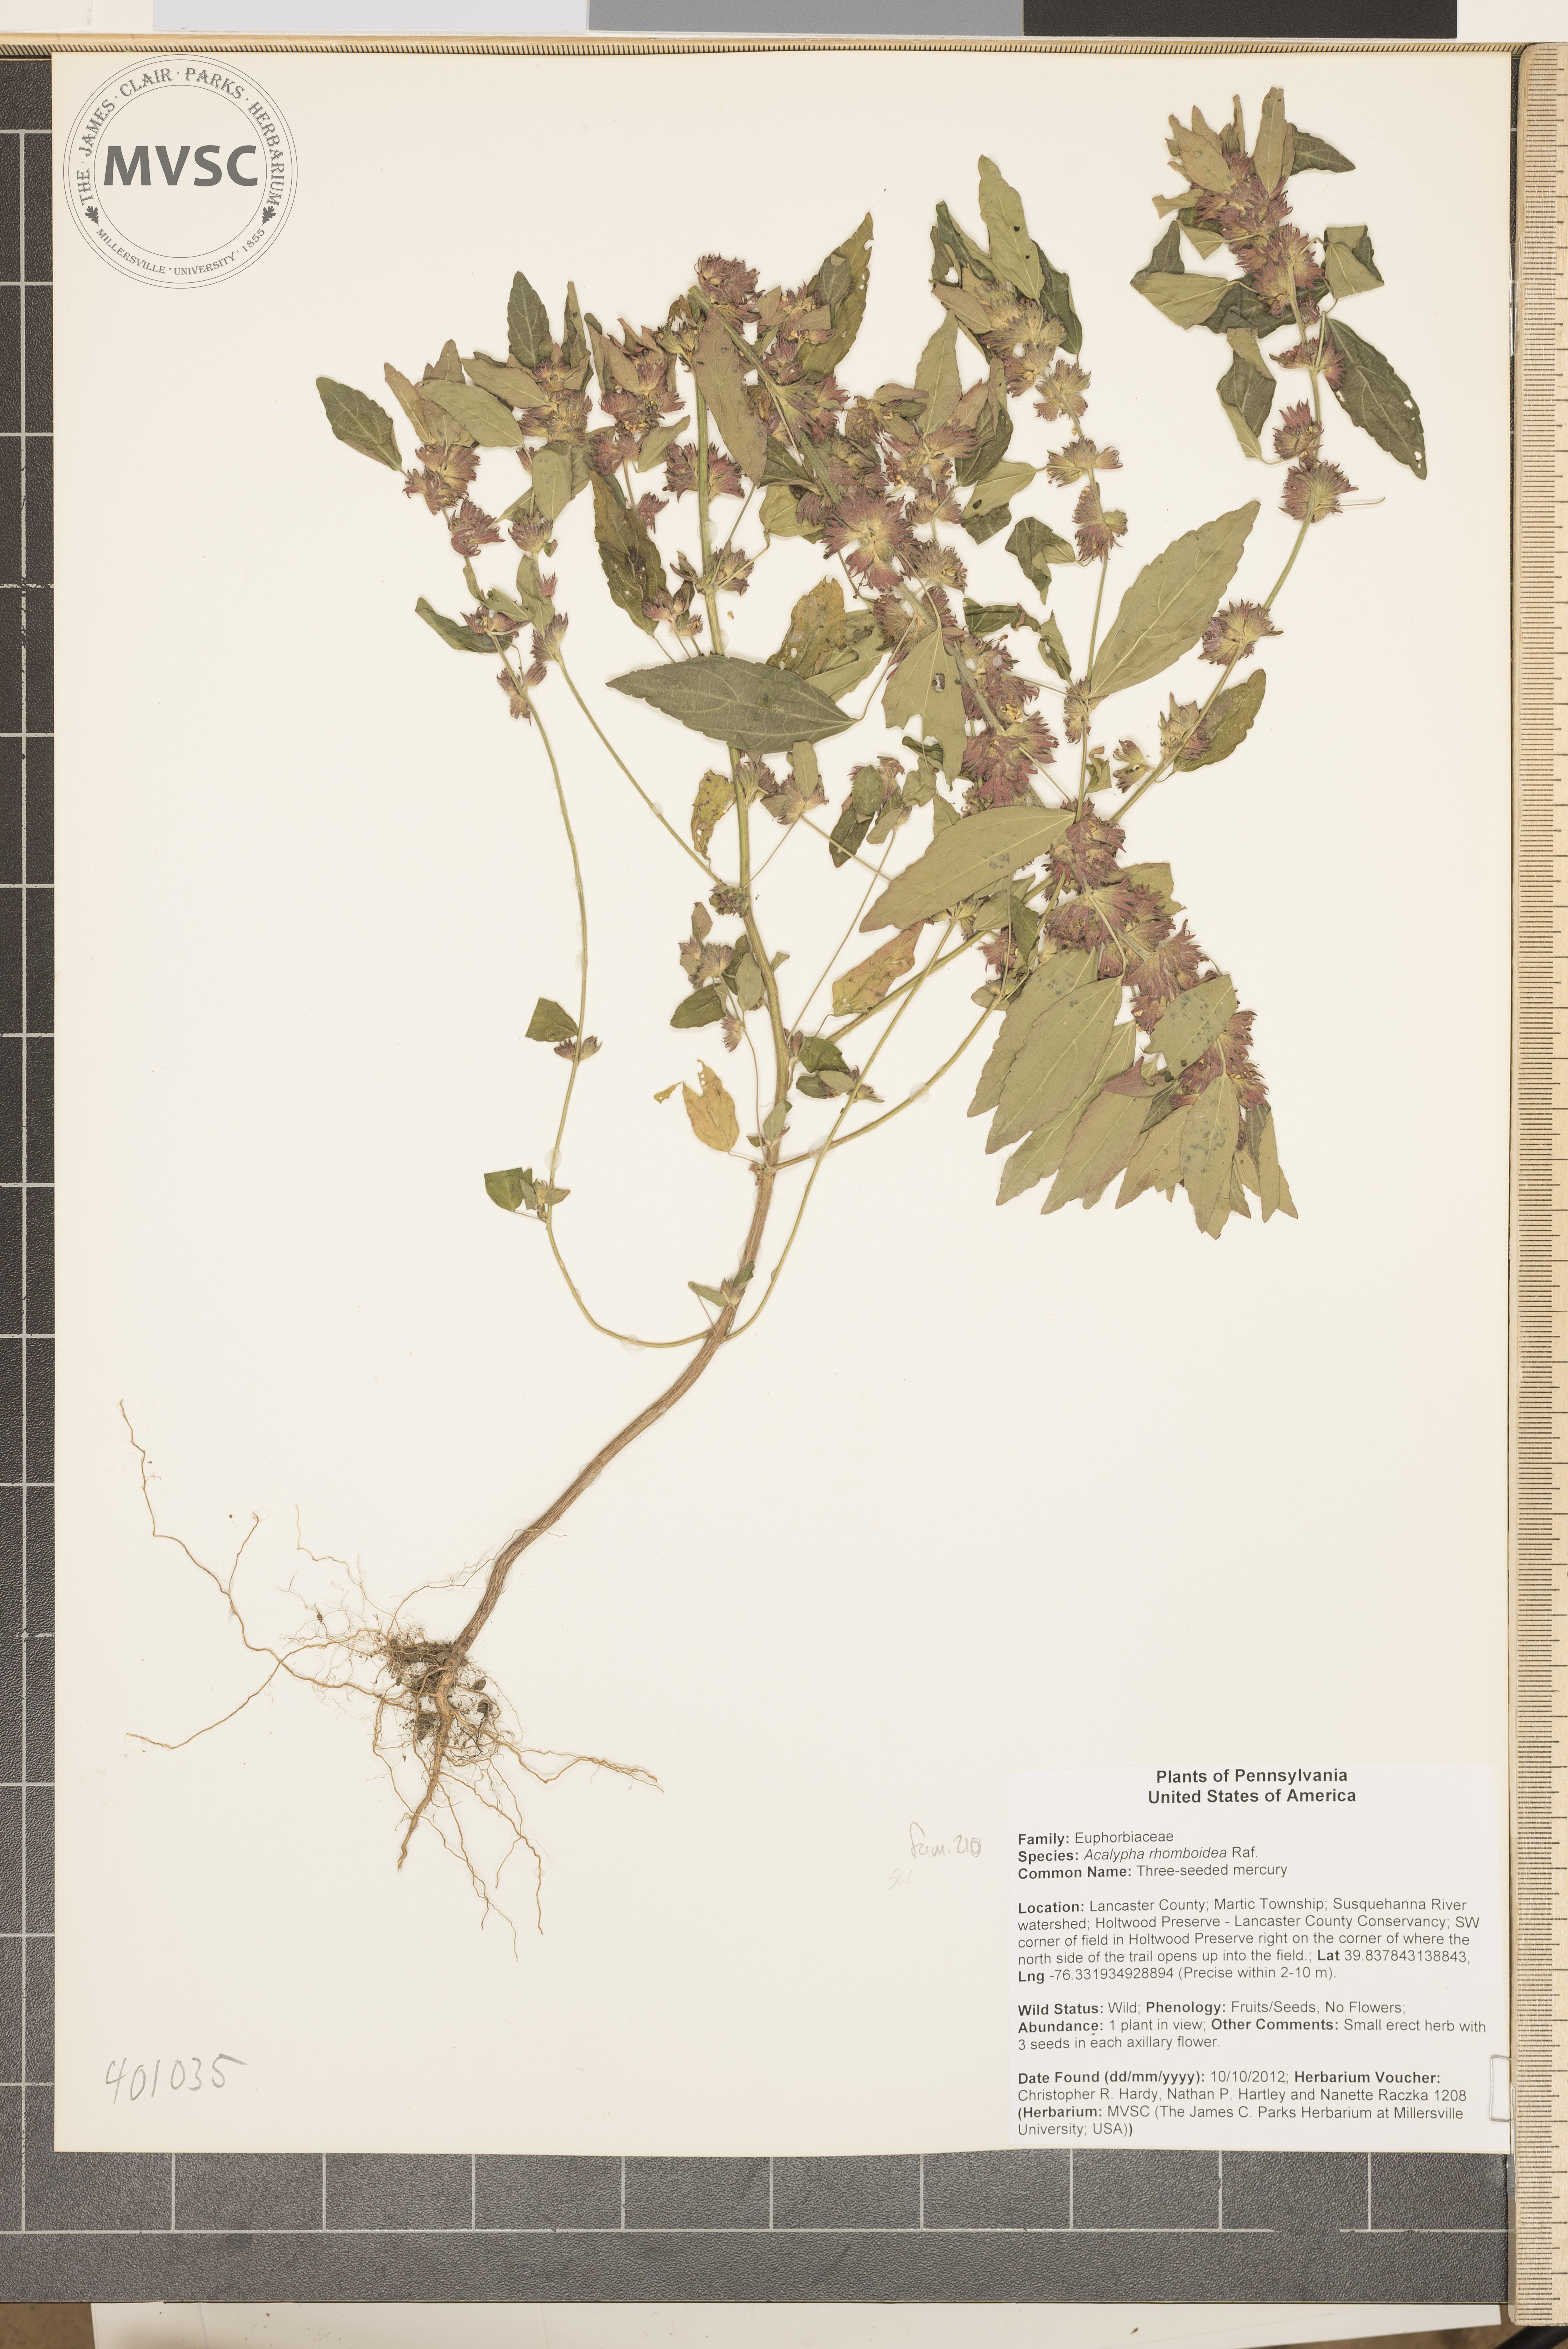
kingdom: Plantae
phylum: Tracheophyta
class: Magnoliopsida
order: Malpighiales
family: Euphorbiaceae
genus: Acalypha
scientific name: Acalypha rhomboidea
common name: three-seeded mercury
